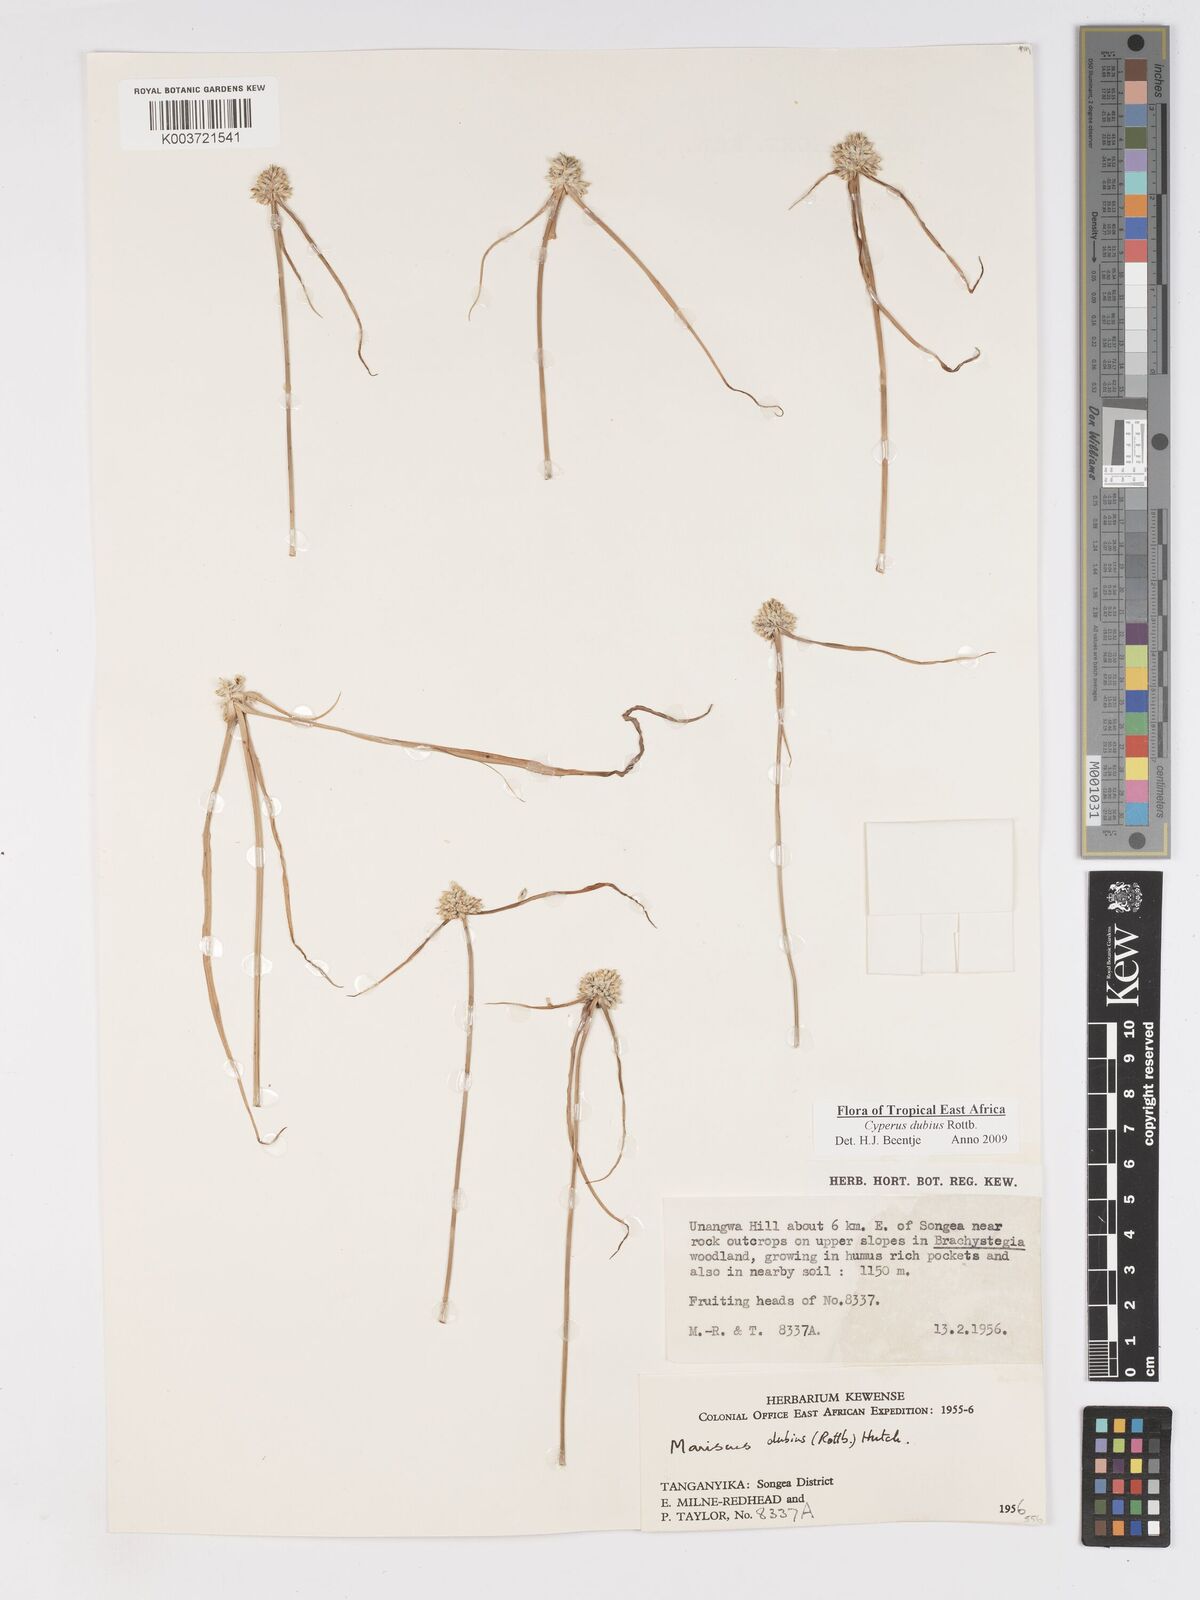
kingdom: Plantae
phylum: Tracheophyta
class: Liliopsida
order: Poales
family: Cyperaceae
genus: Cyperus
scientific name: Cyperus dubius
